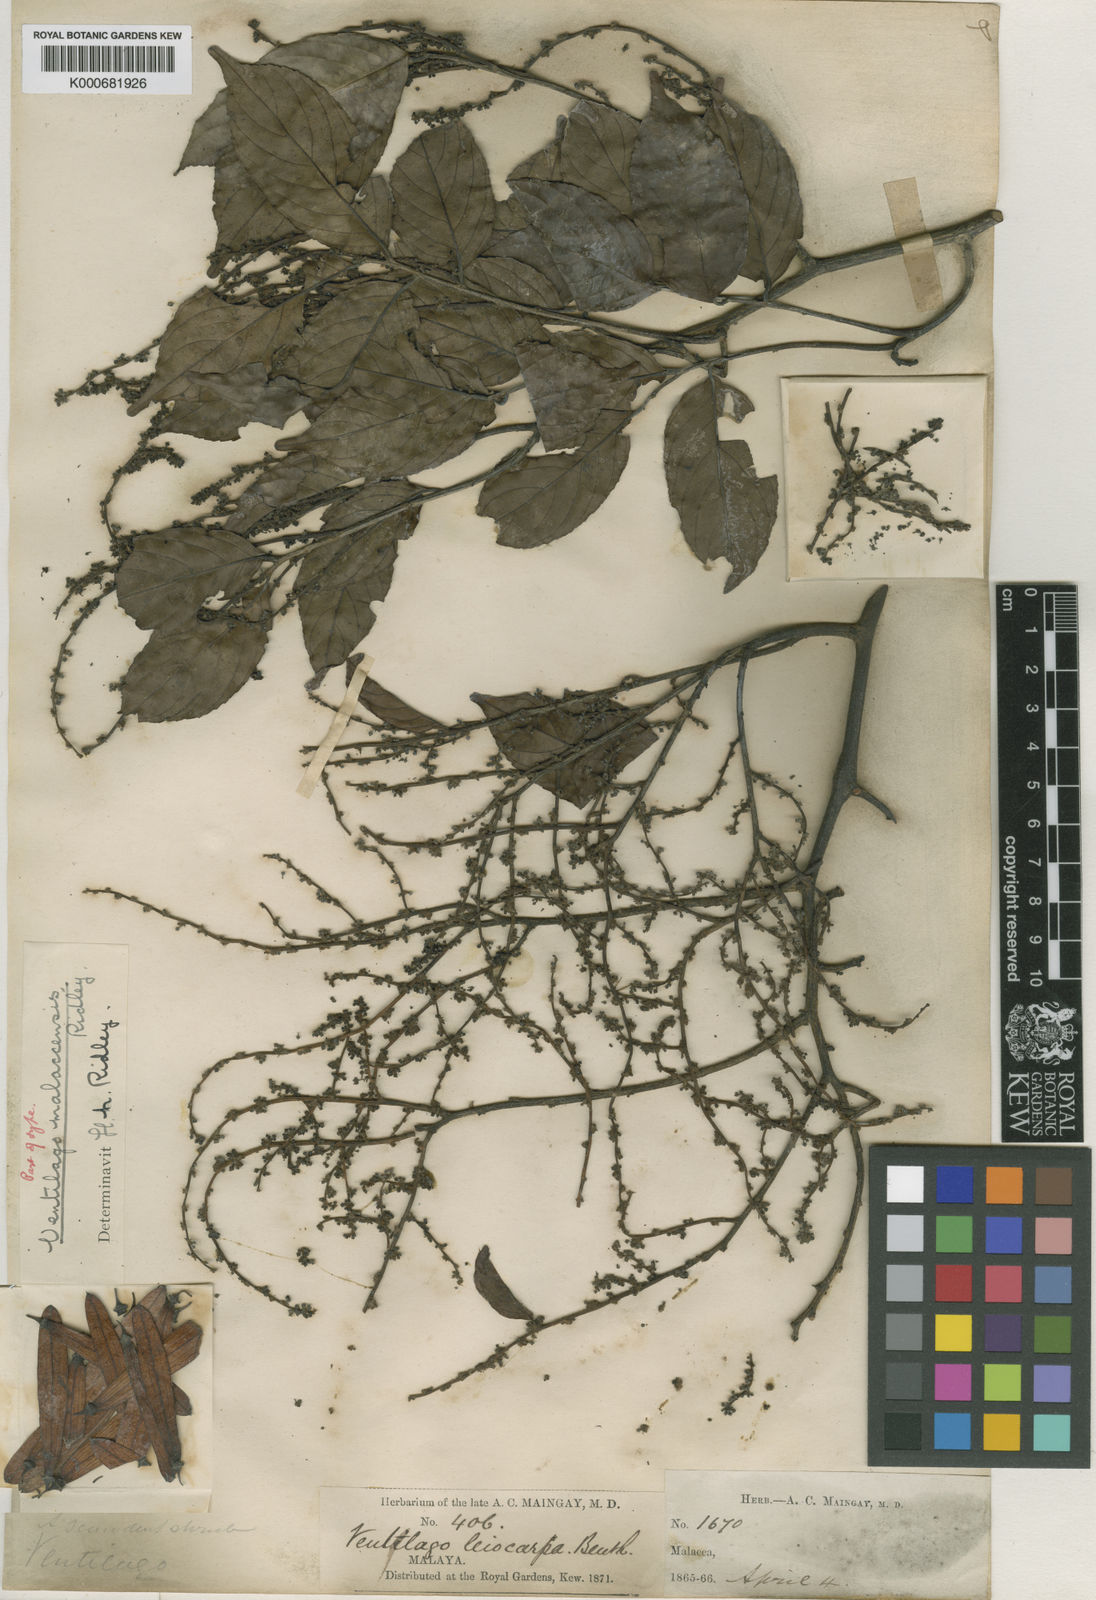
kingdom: Plantae
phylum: Tracheophyta
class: Magnoliopsida
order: Rosales
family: Rhamnaceae
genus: Ventilago
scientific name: Ventilago malaccensis
